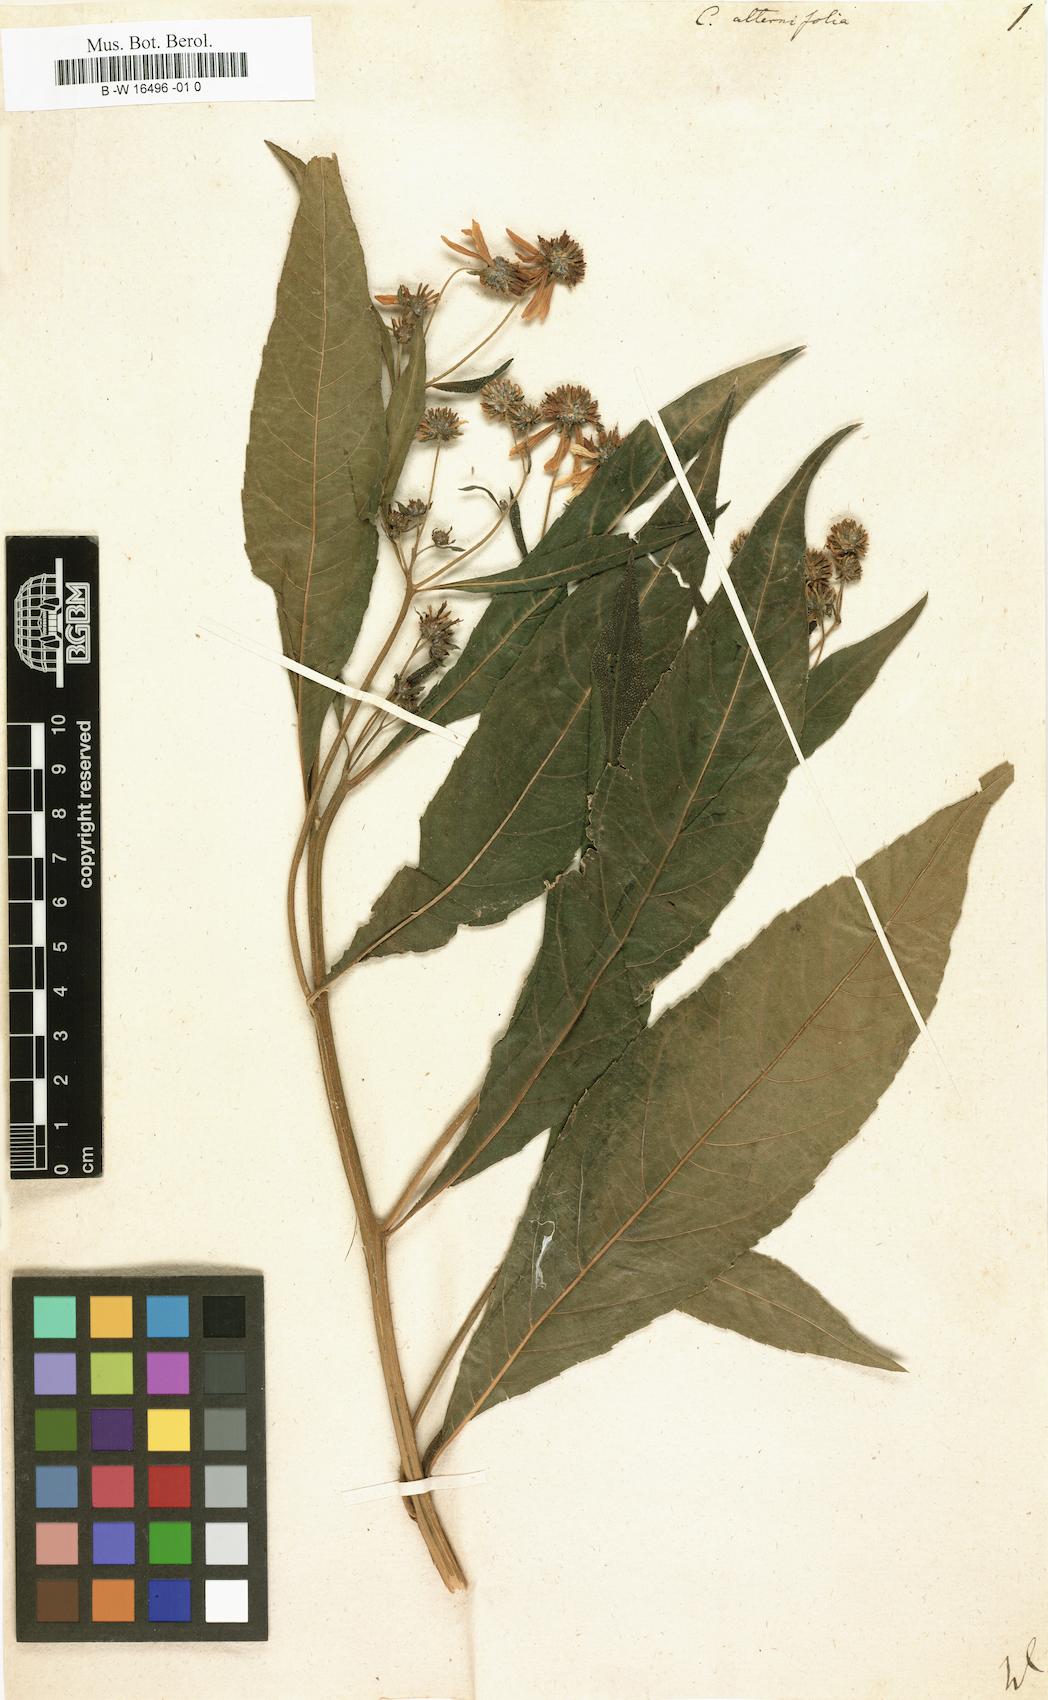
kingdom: Plantae
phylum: Tracheophyta
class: Magnoliopsida
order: Asterales
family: Asteraceae
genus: Verbesina
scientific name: Verbesina alternifolia
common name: Wingstem
